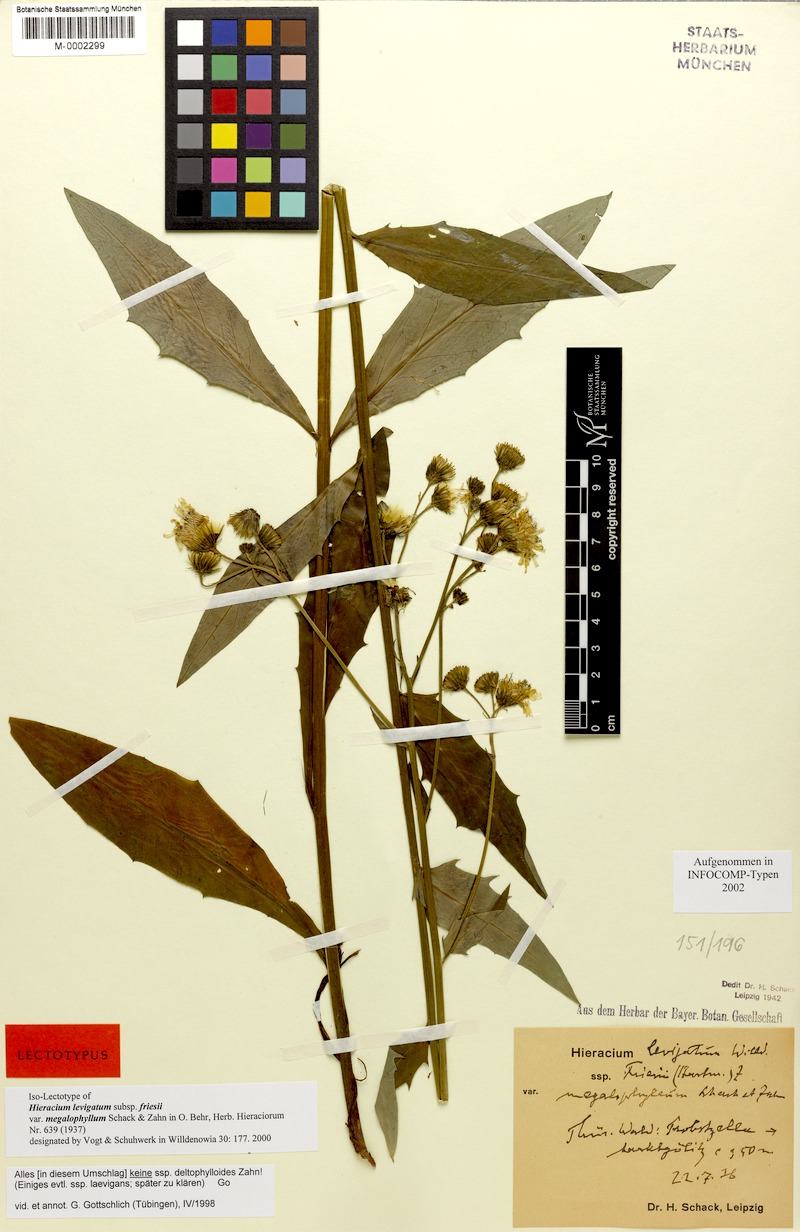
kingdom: Plantae
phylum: Tracheophyta
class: Magnoliopsida
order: Asterales
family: Asteraceae
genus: Hieracium
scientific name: Hieracium laevigatum
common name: Smooth hawkweed
